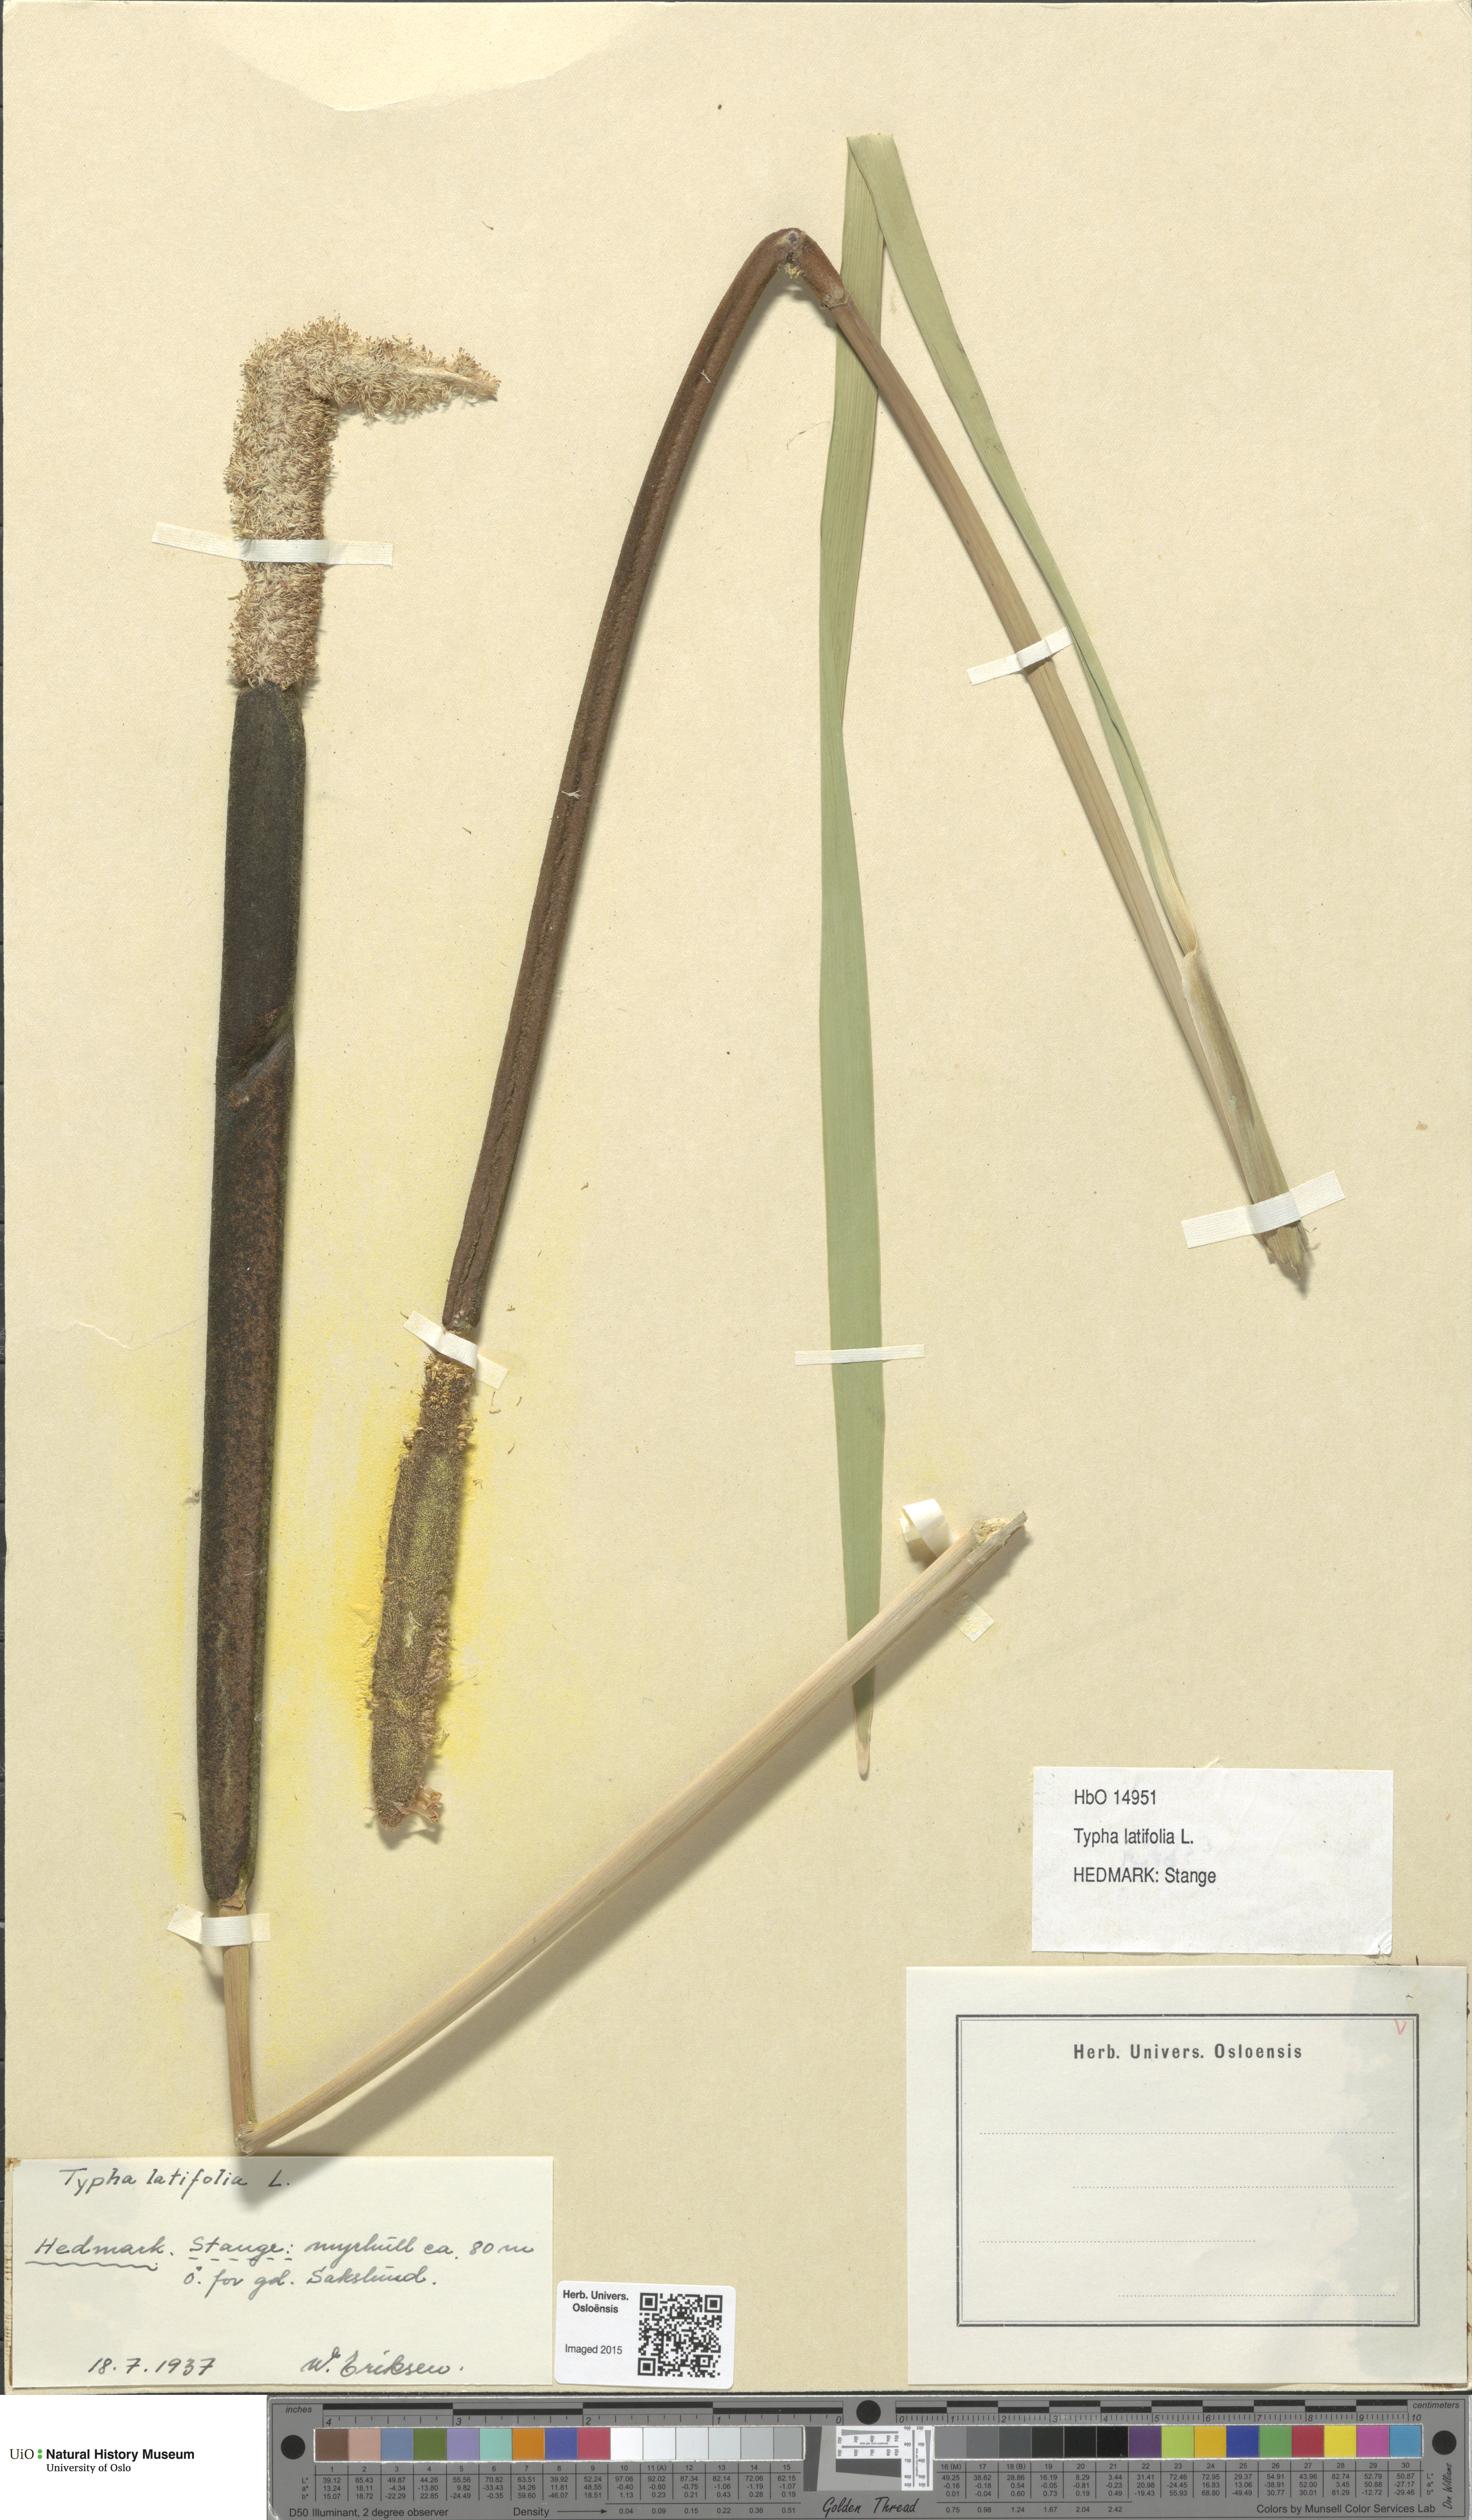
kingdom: Plantae
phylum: Tracheophyta
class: Liliopsida
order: Poales
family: Typhaceae
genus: Typha
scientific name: Typha latifolia
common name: Broadleaf cattail
